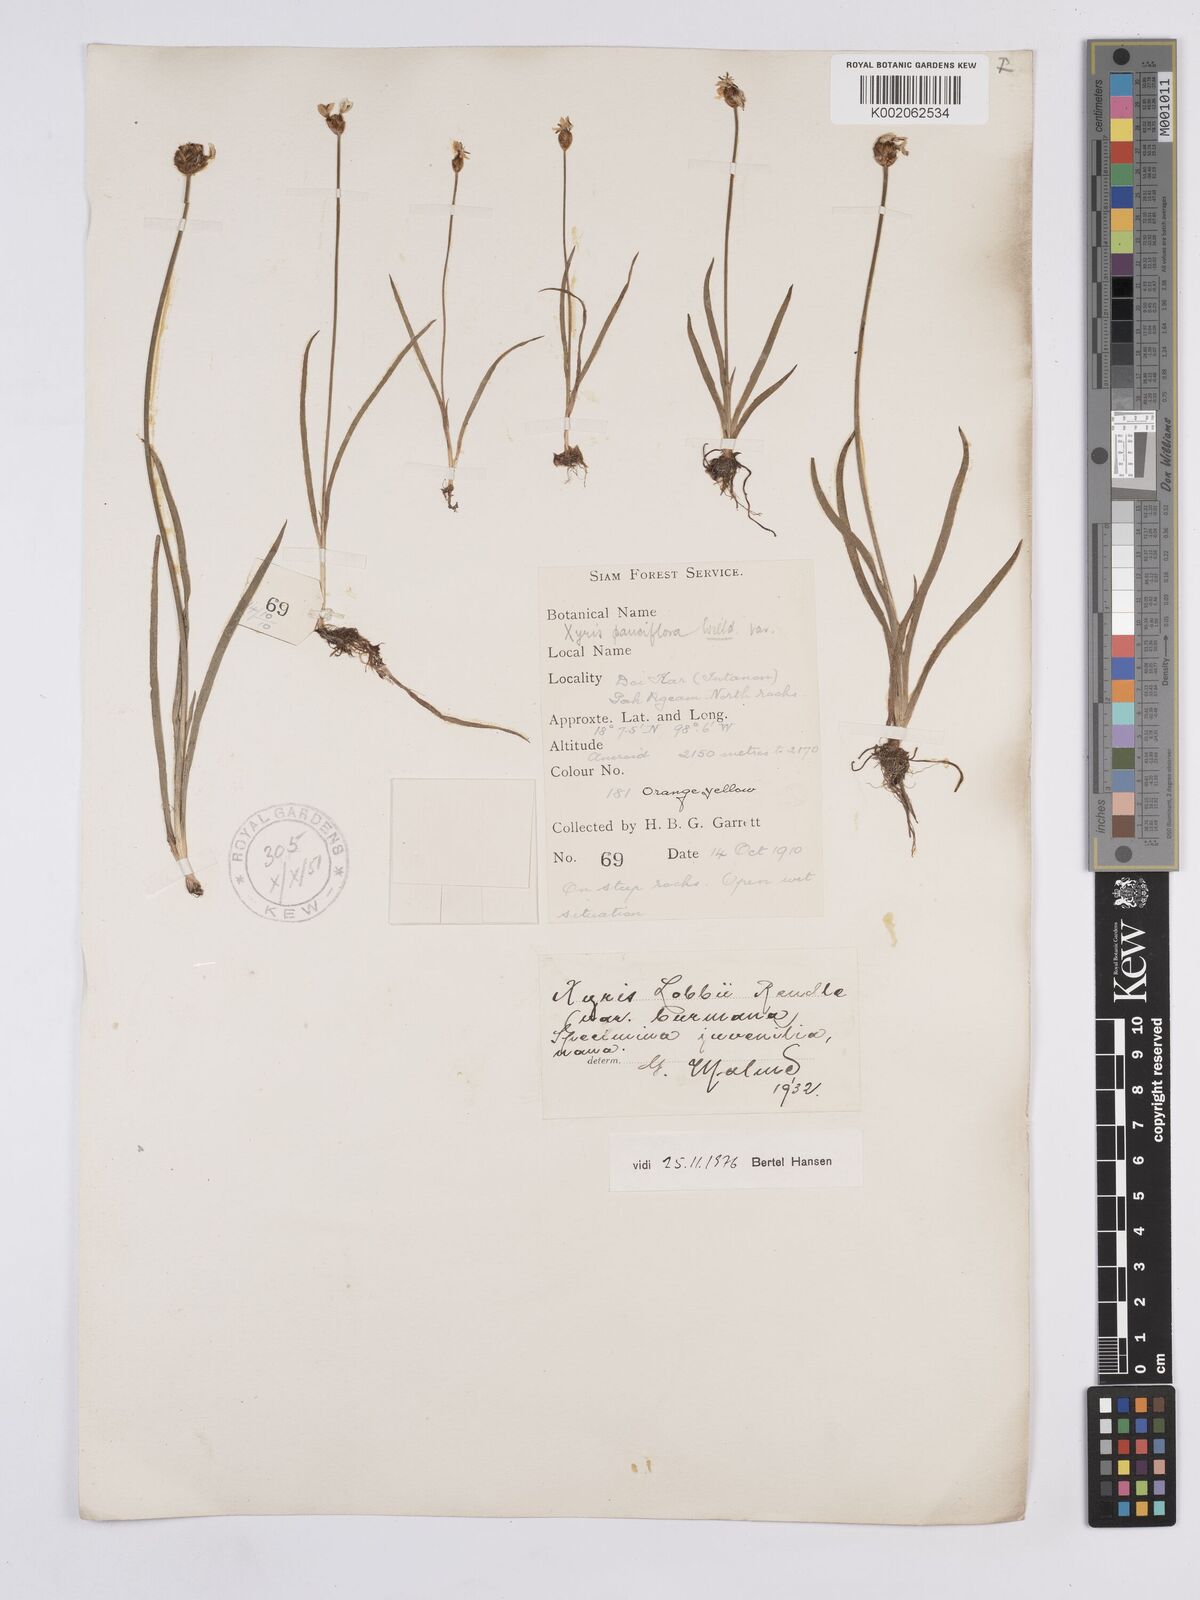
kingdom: Plantae
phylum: Tracheophyta
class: Liliopsida
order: Poales
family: Xyridaceae
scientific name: Xyridaceae
